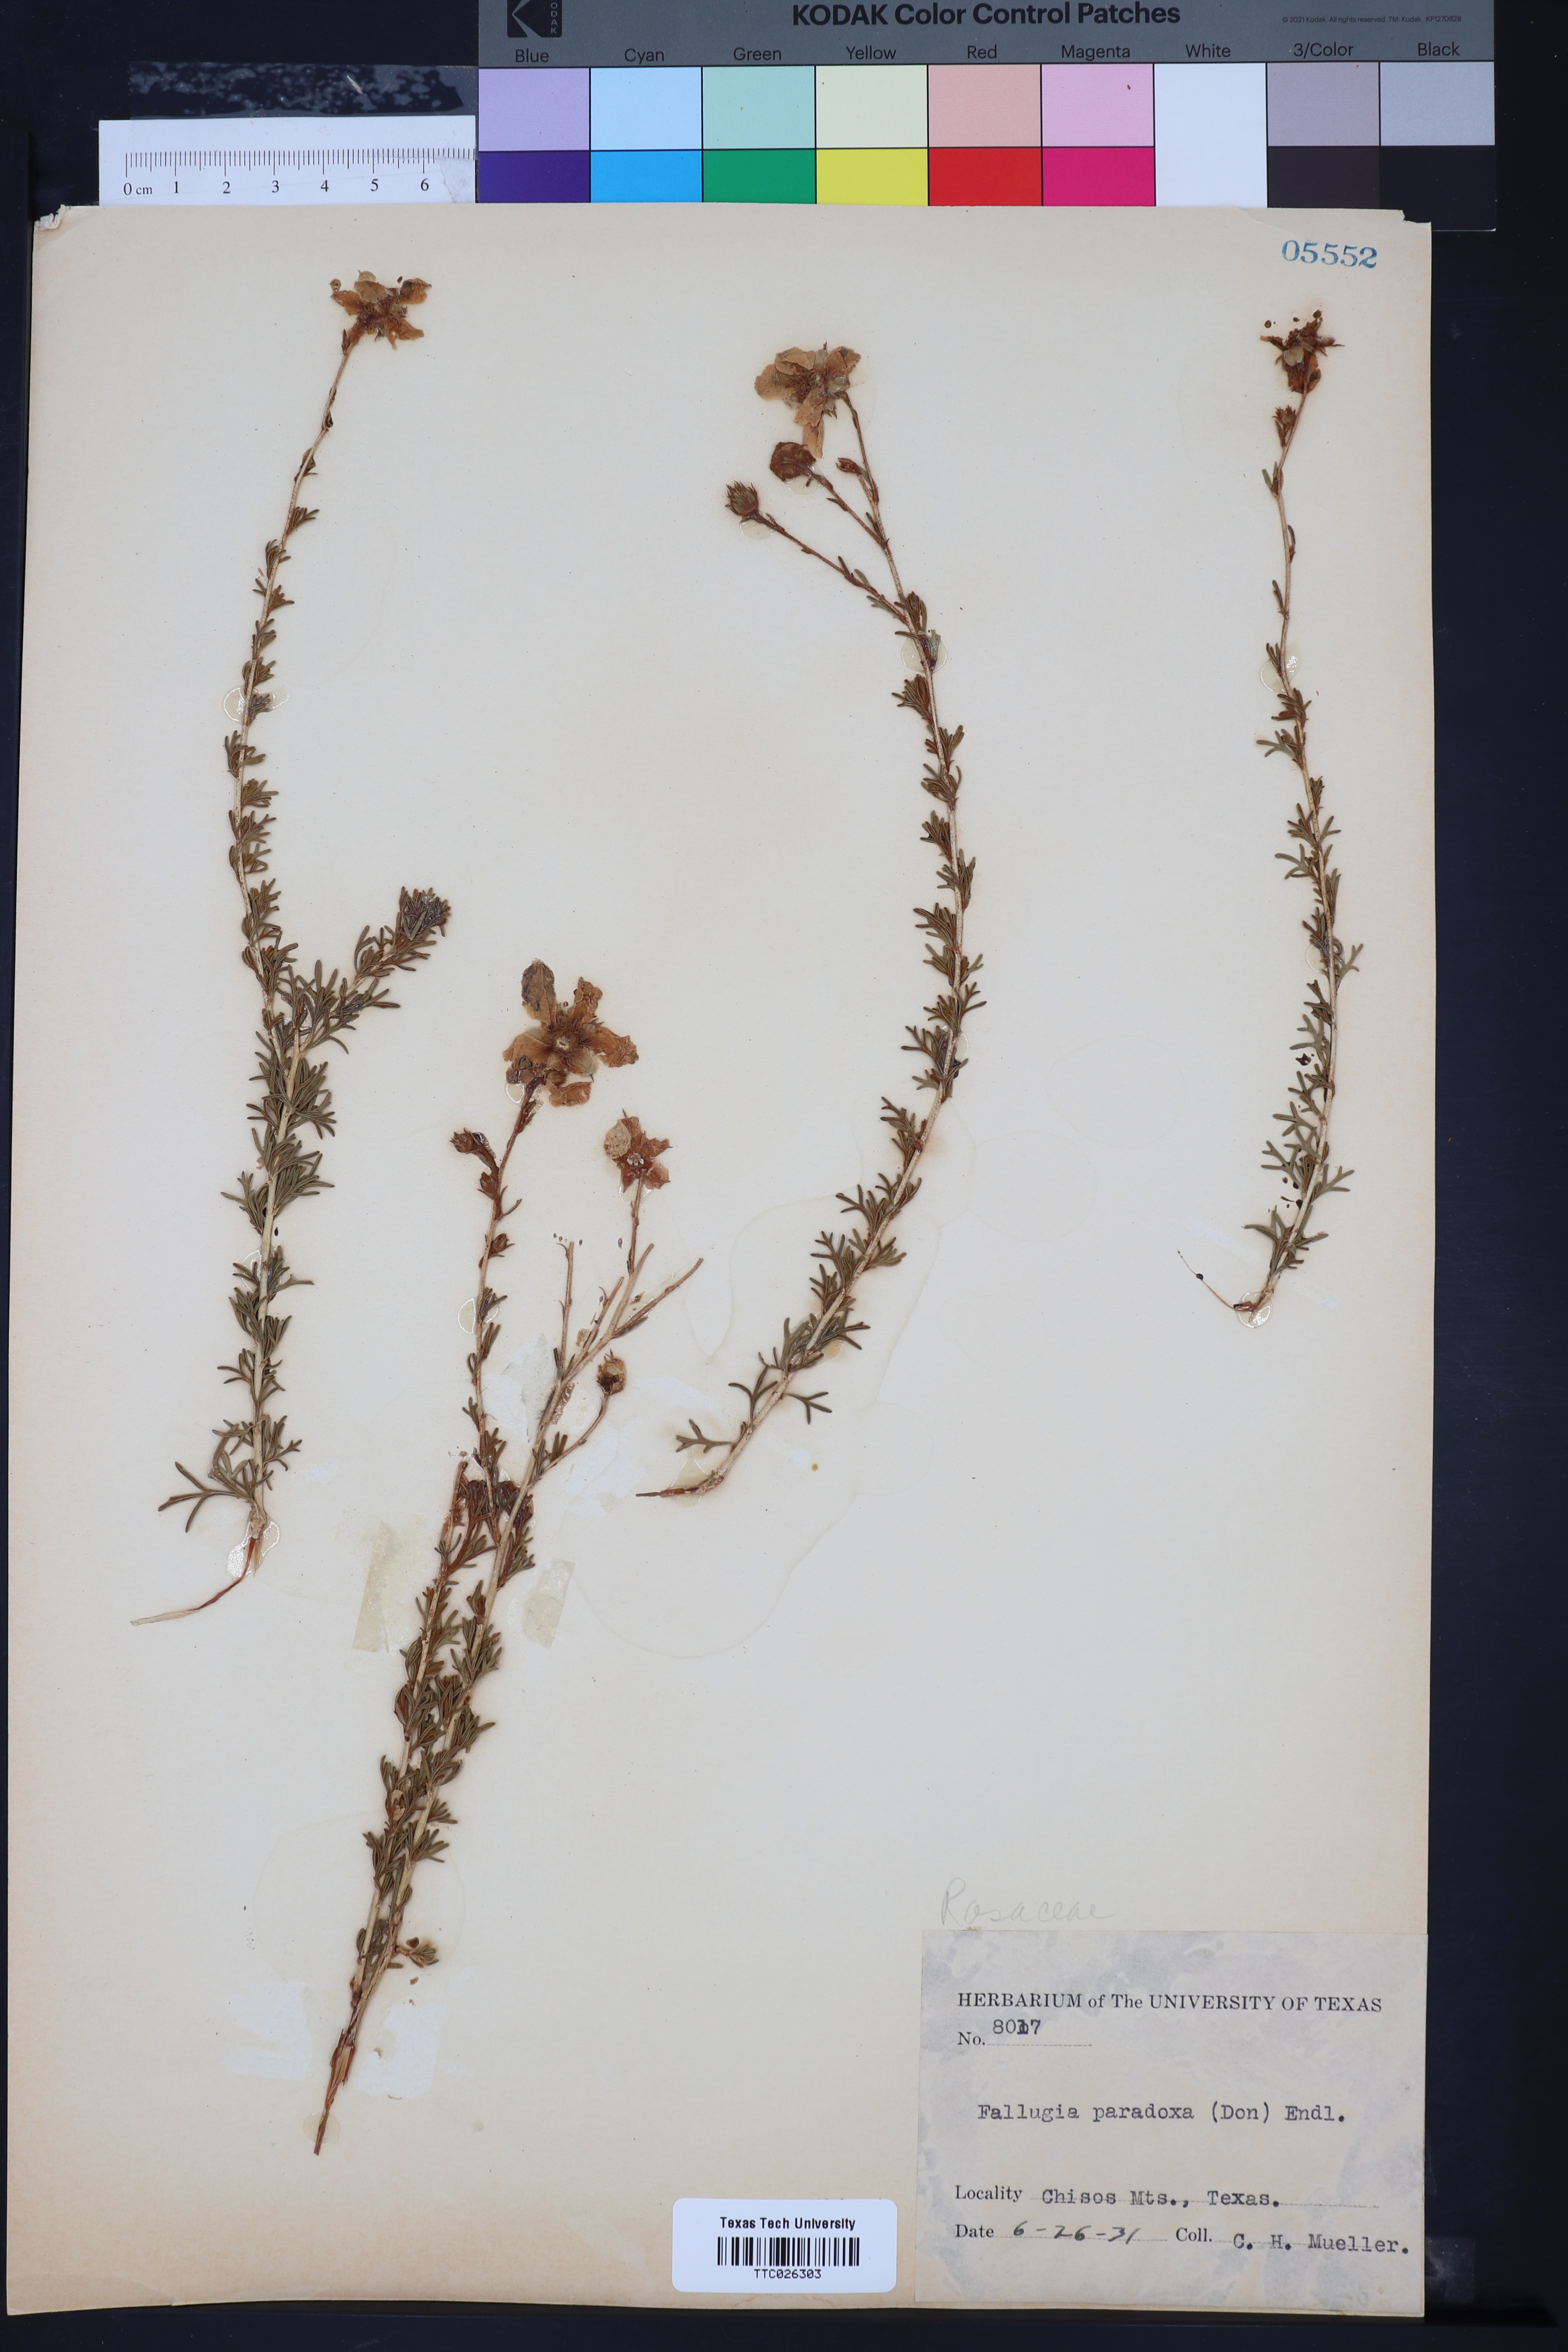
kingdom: Plantae
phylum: Tracheophyta
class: Magnoliopsida
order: Rosales
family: Rosaceae
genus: Fallugia
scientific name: Fallugia paradoxa
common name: Apache-plume
